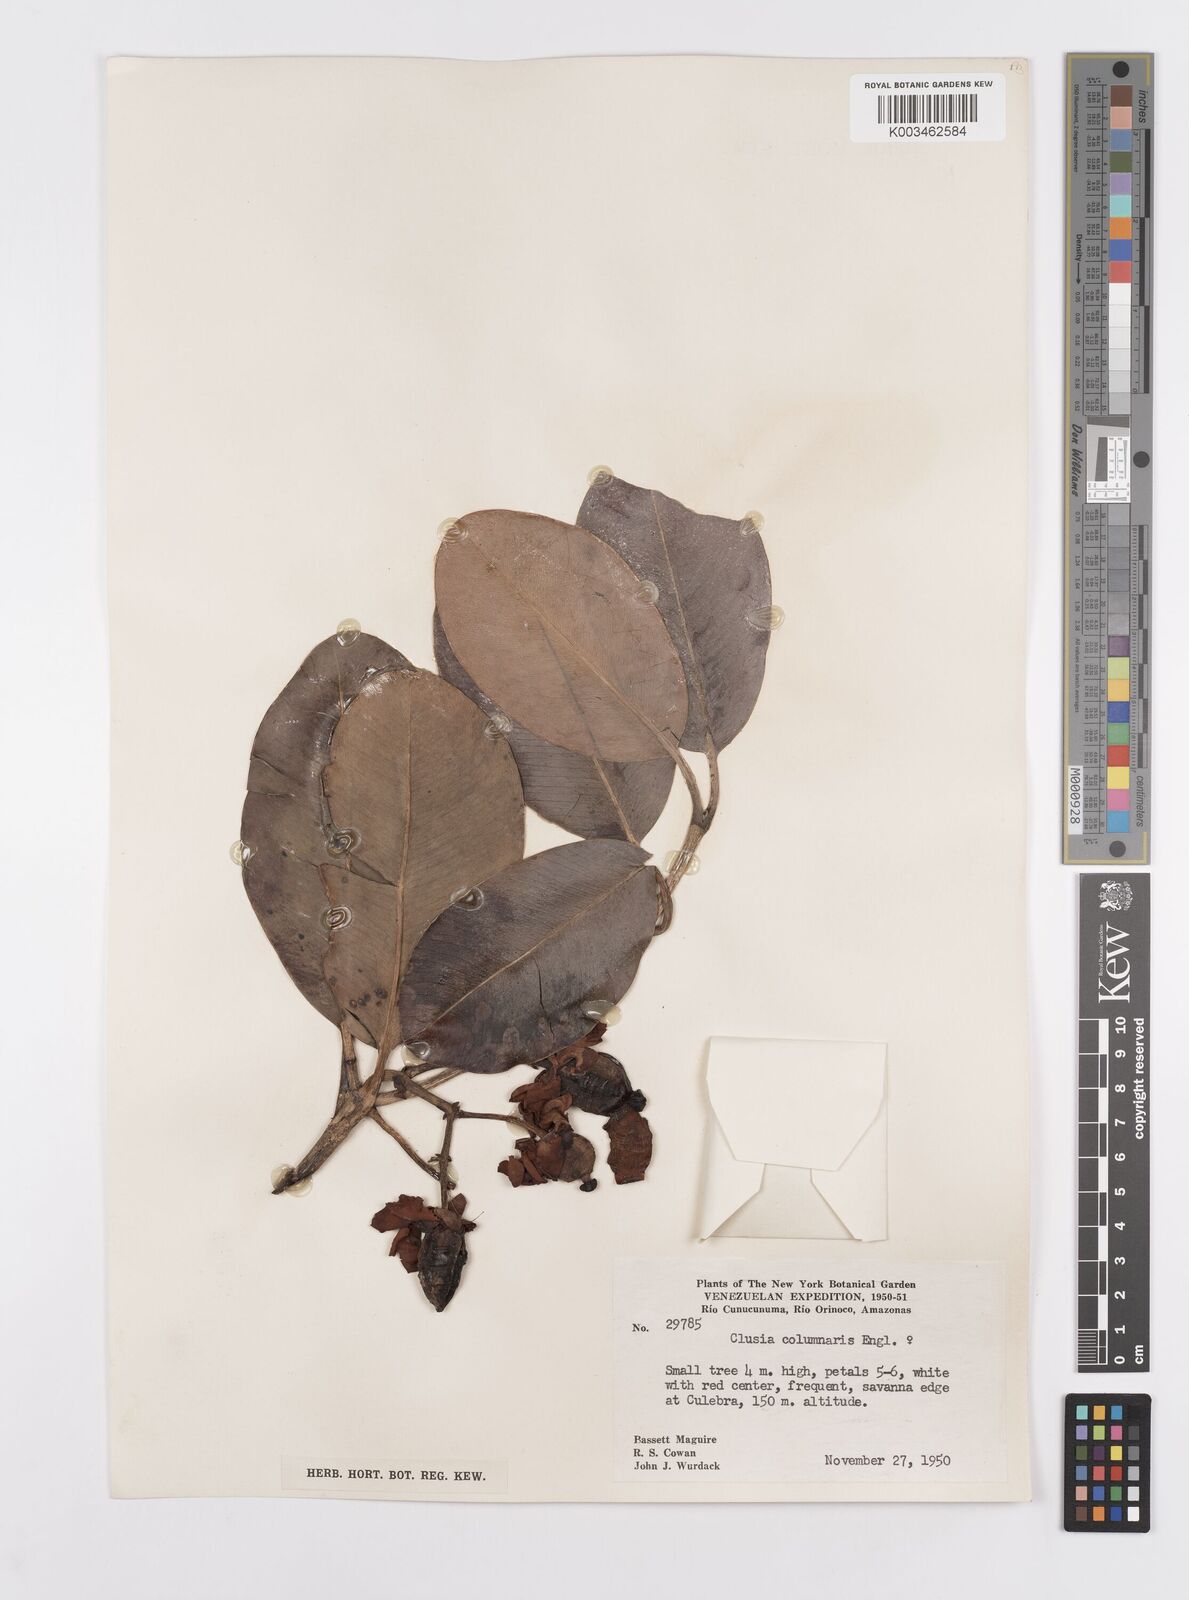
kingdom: Plantae
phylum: Tracheophyta
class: Magnoliopsida
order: Malpighiales
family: Clusiaceae
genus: Clusia
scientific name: Clusia columnaris
